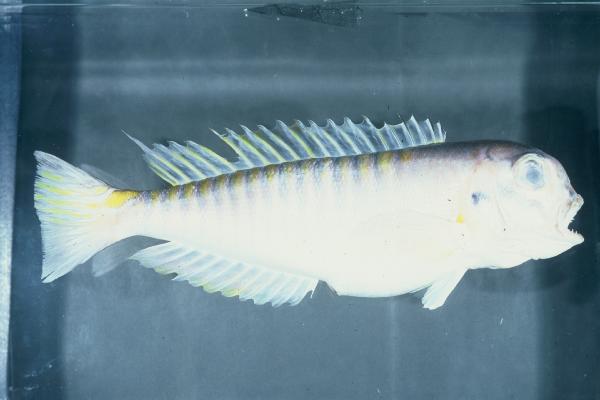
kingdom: Animalia
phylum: Chordata
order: Perciformes
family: Malacanthidae
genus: Branchiostegus
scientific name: Branchiostegus doliatus
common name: Ribbed tilefish
